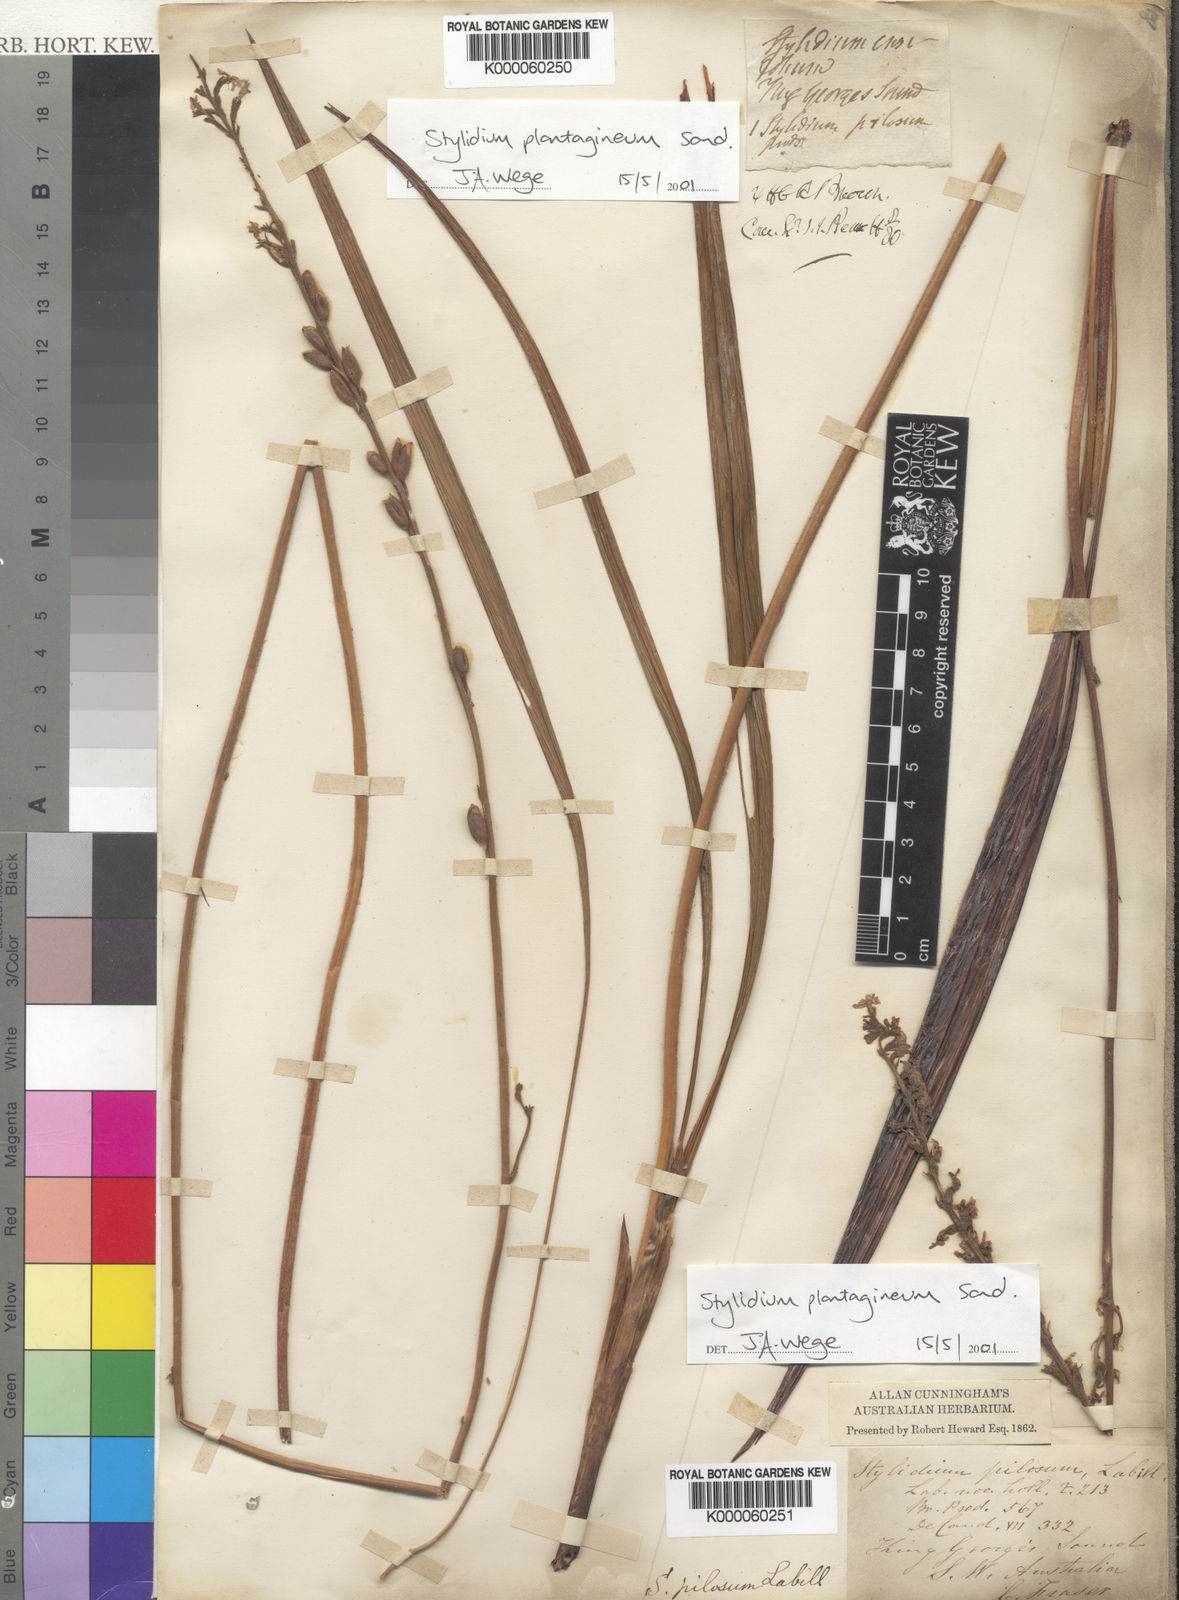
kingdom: Plantae
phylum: Tracheophyta
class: Magnoliopsida
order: Asterales
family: Stylidiaceae
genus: Stylidium
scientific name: Stylidium plantagineum
